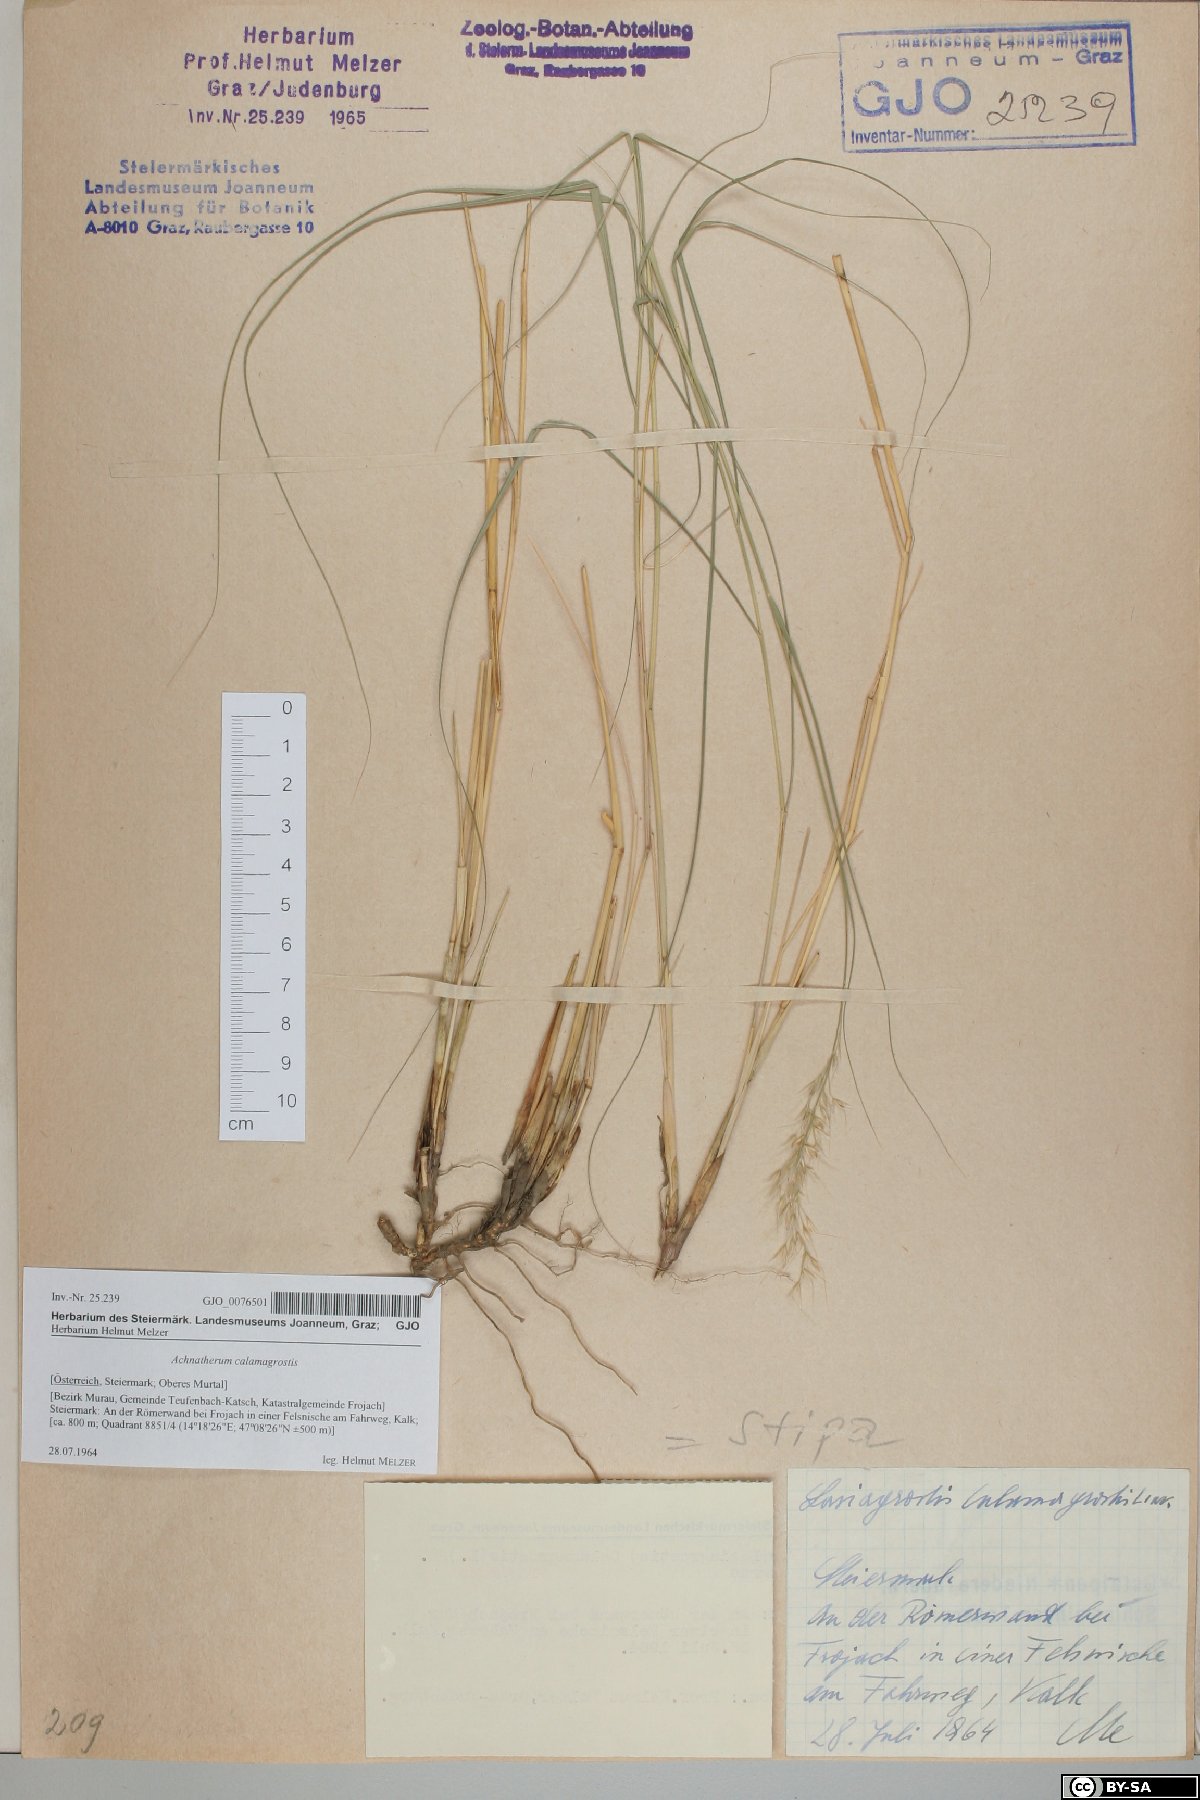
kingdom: Plantae
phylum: Tracheophyta
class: Liliopsida
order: Poales
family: Poaceae
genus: Achnatherum
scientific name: Achnatherum calamagrostis
